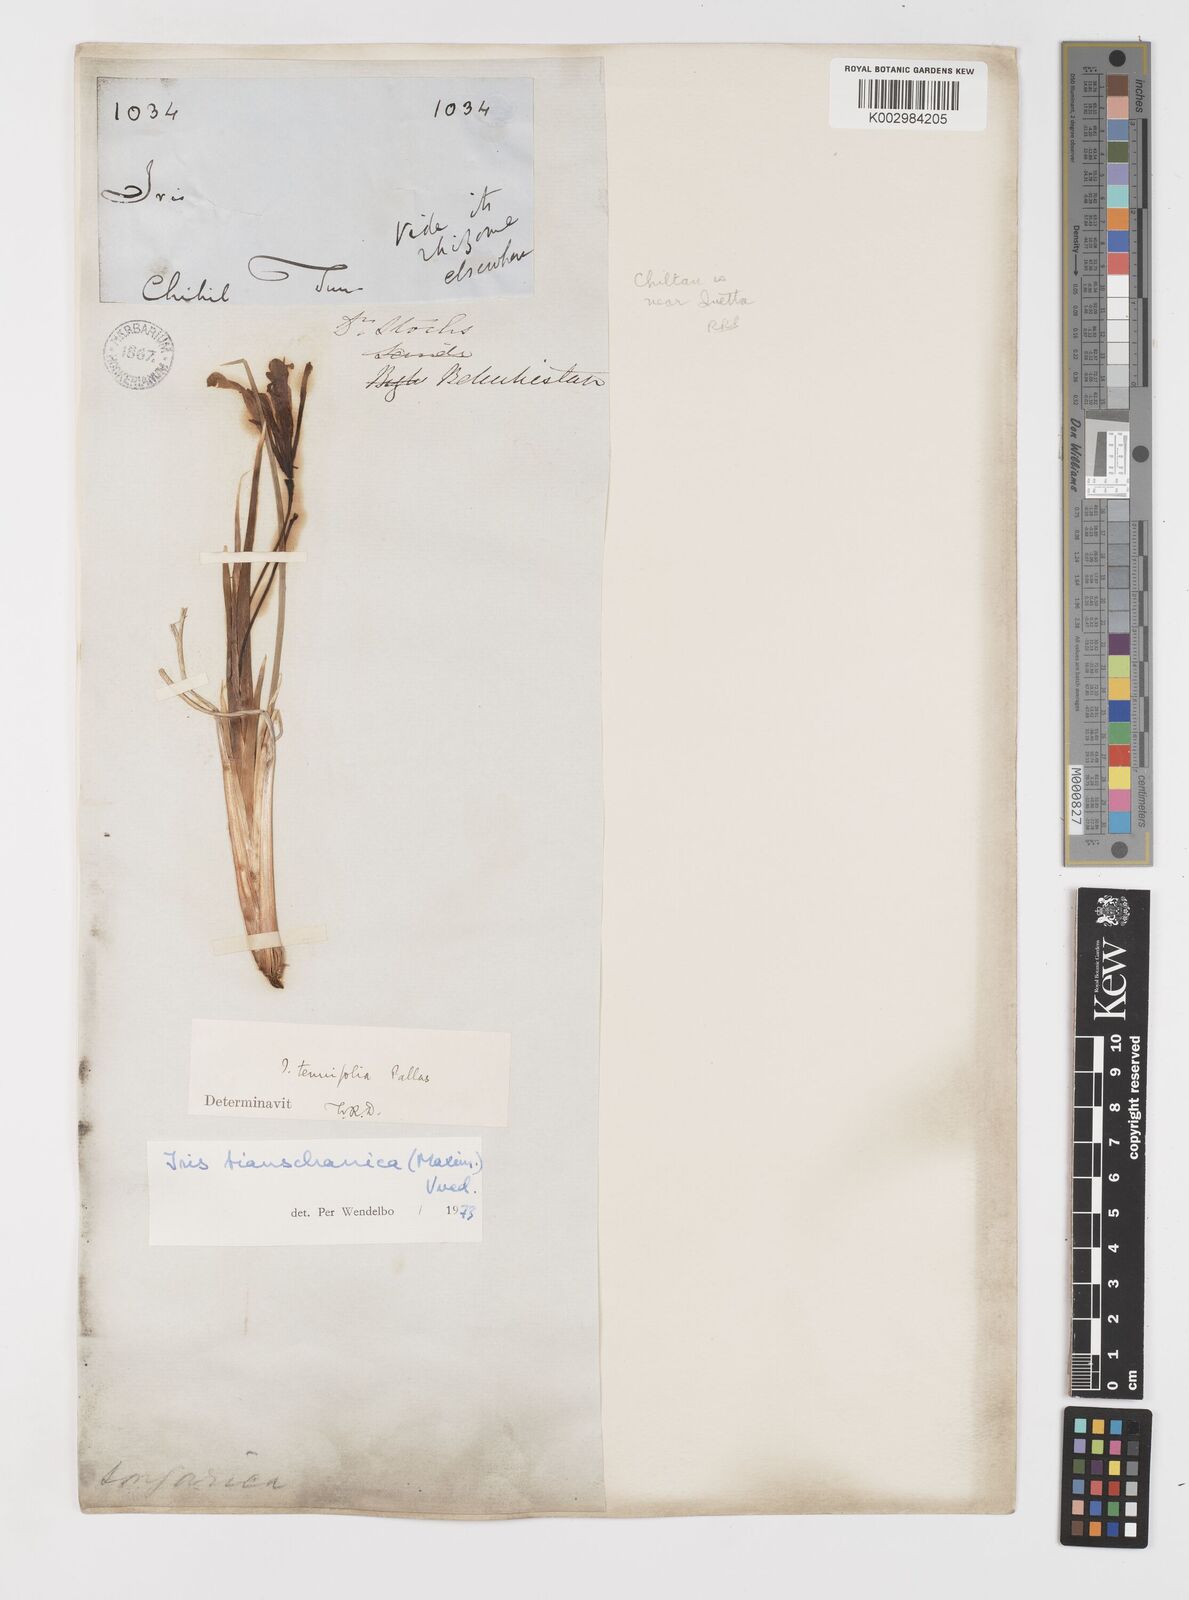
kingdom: Plantae
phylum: Tracheophyta
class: Liliopsida
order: Asparagales
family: Iridaceae
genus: Iris
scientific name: Iris loczyi
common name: Tian shan mountain iris
